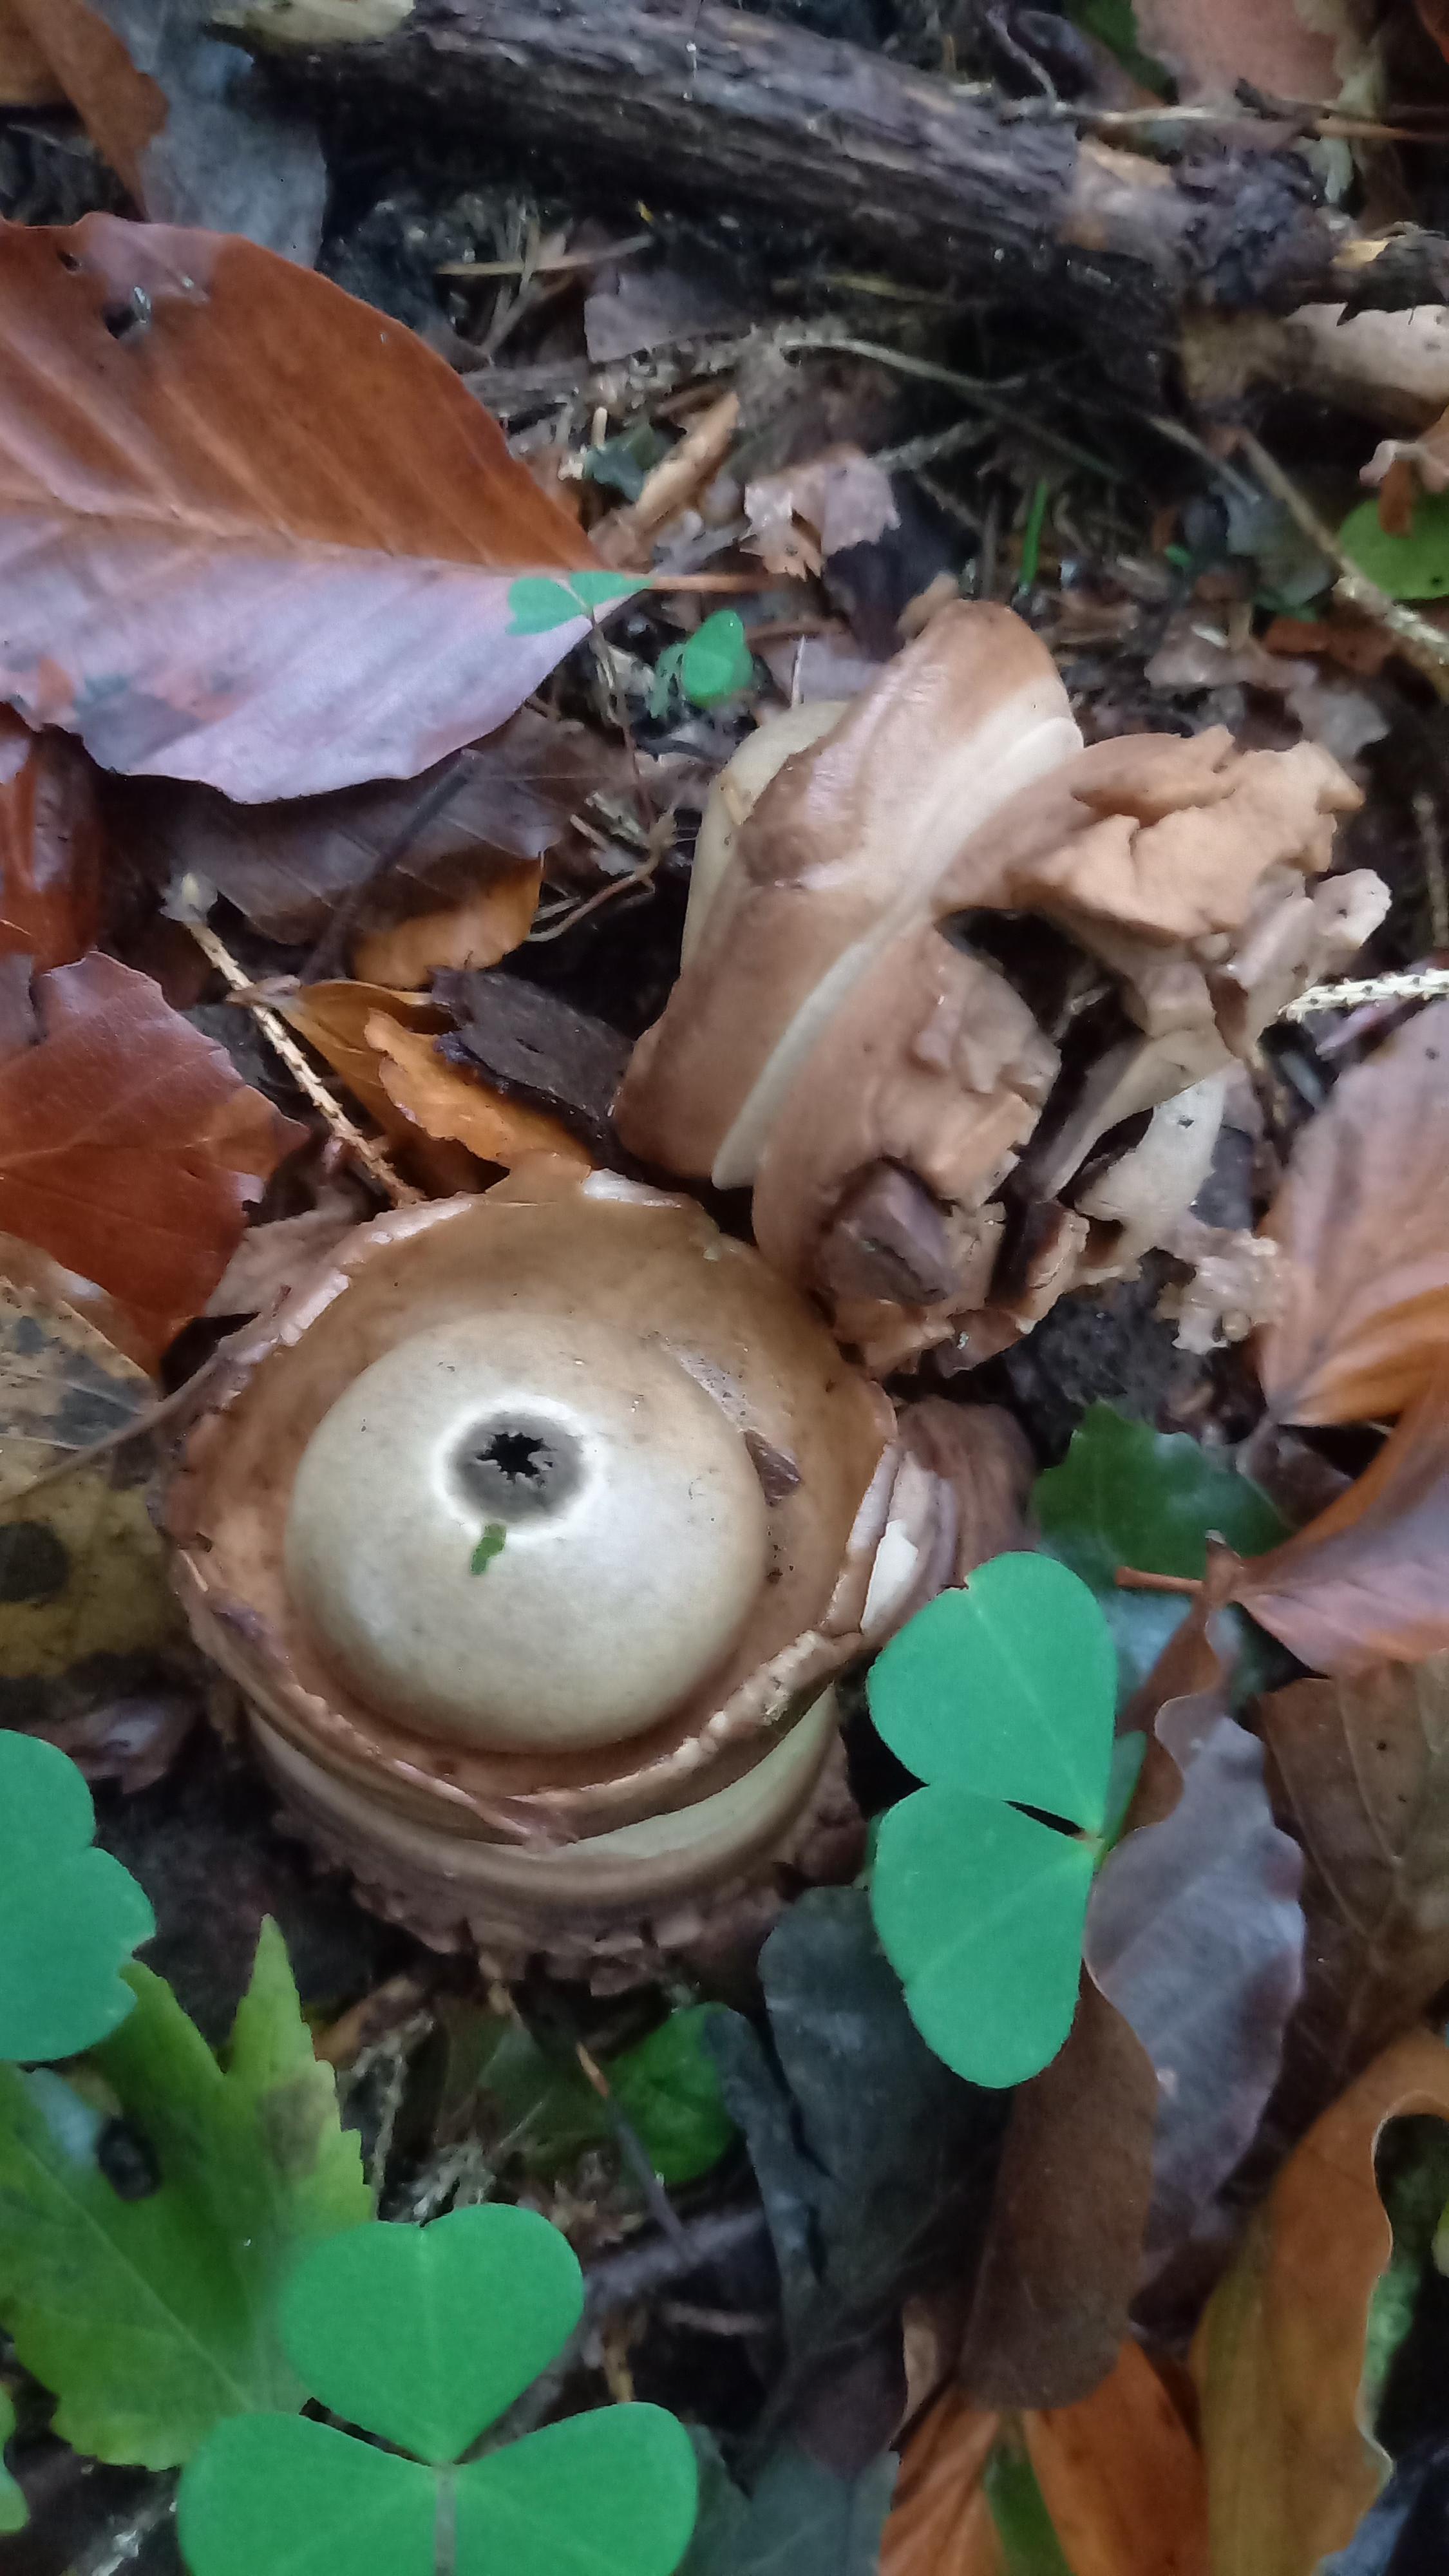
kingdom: Fungi
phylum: Basidiomycota
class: Agaricomycetes
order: Geastrales
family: Geastraceae
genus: Geastrum
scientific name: Geastrum michelianum
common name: kødet stjernebold
